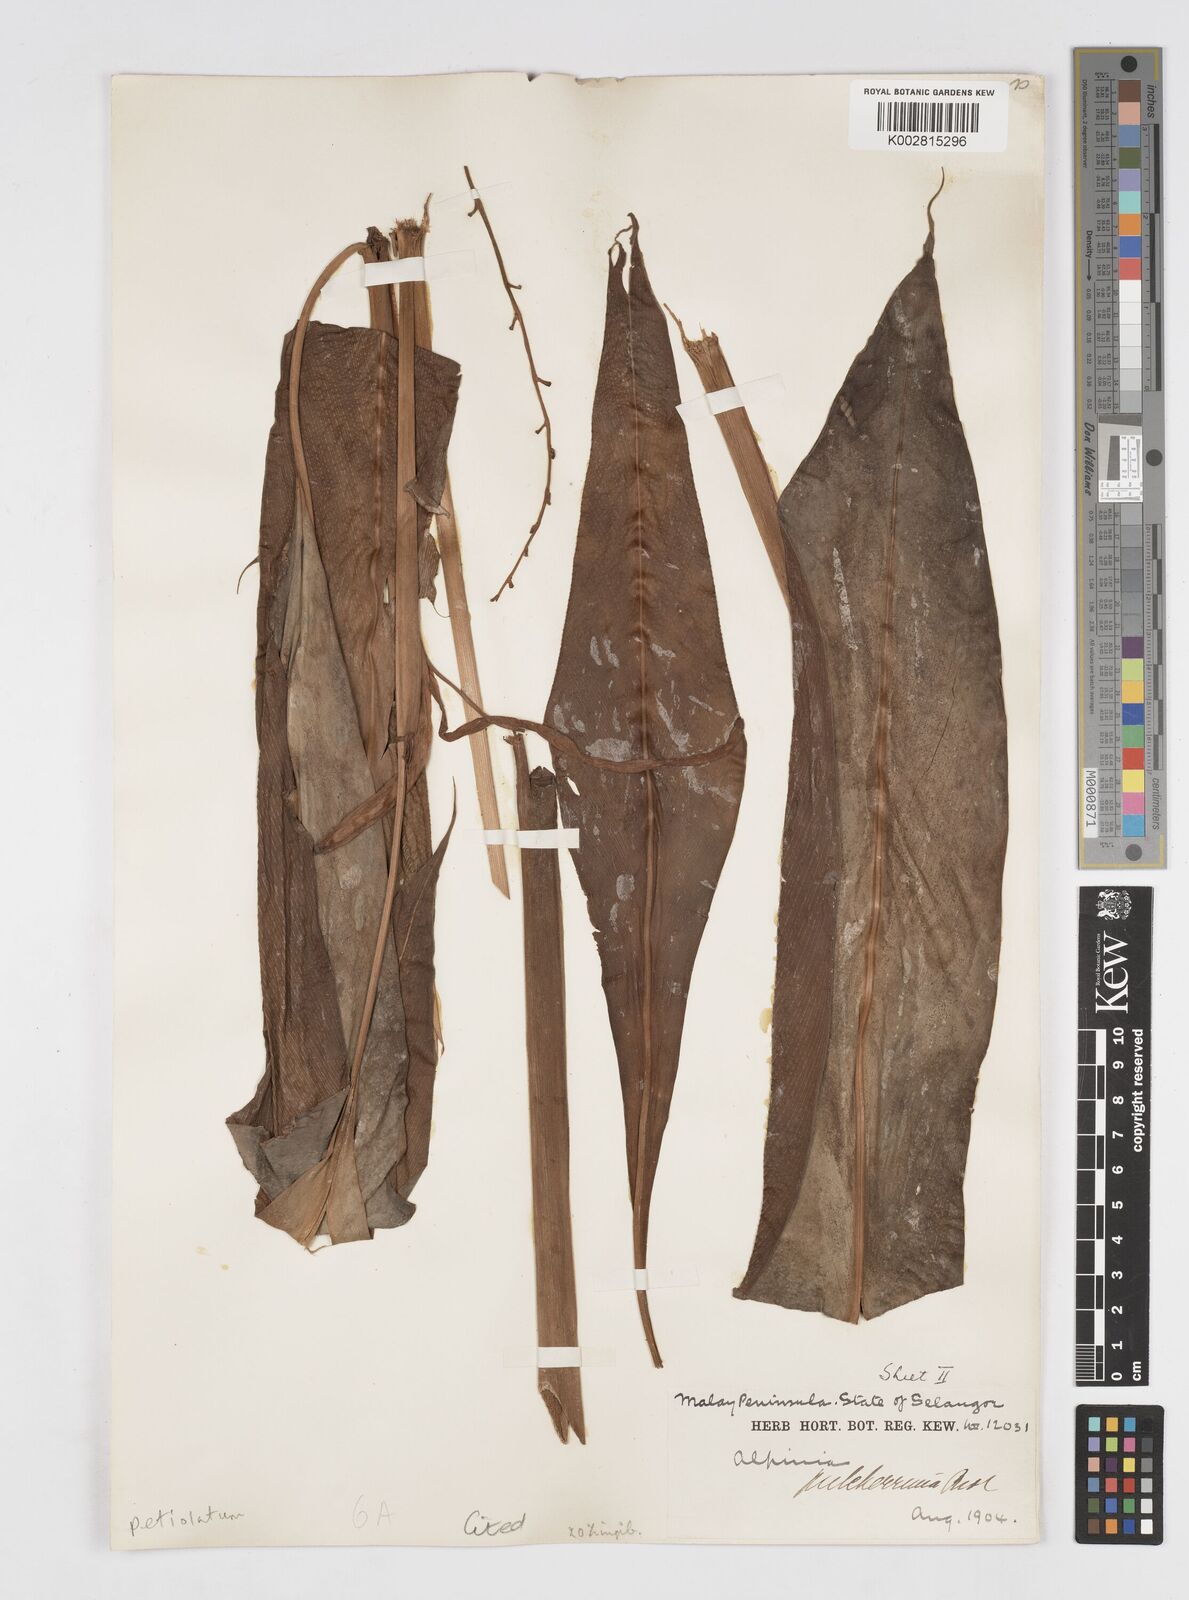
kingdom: Plantae
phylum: Tracheophyta
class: Liliopsida
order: Zingiberales
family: Zingiberaceae
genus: Alpinia
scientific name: Alpinia petiolata
